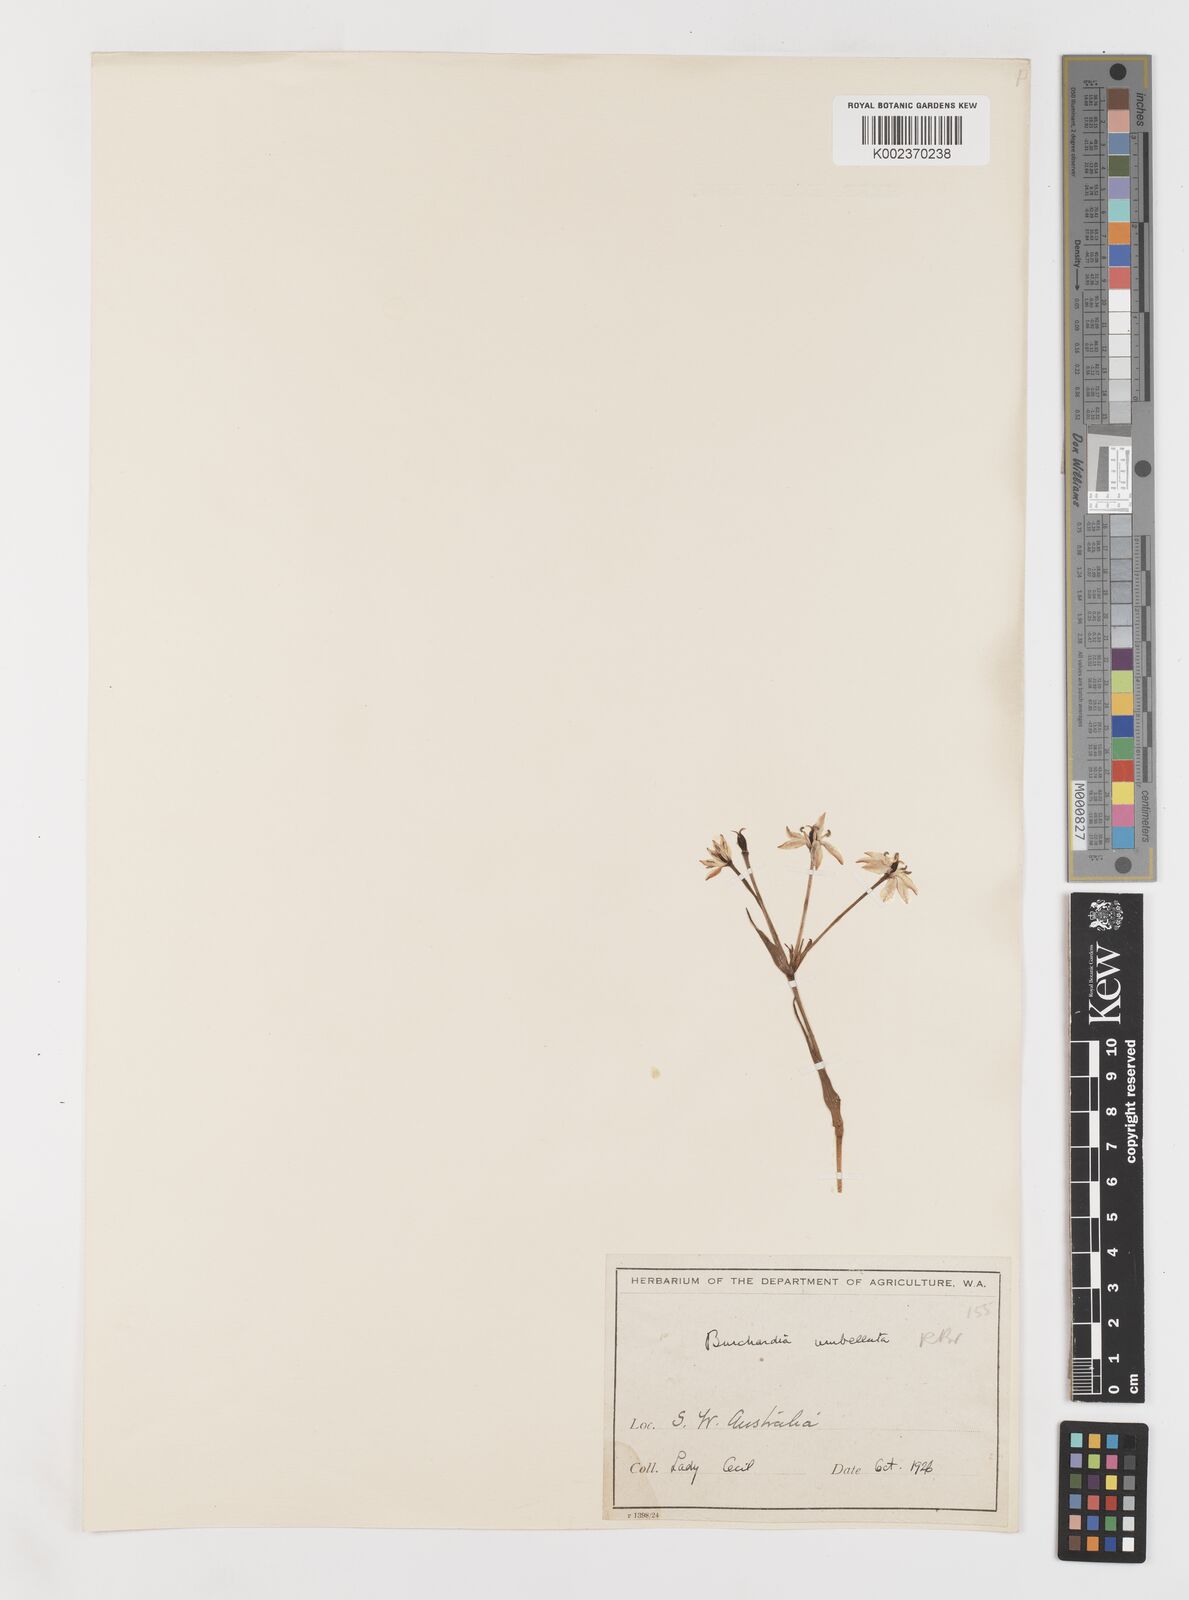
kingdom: Plantae
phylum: Tracheophyta
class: Liliopsida
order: Liliales
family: Colchicaceae
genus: Burchardia
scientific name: Burchardia multiflora
